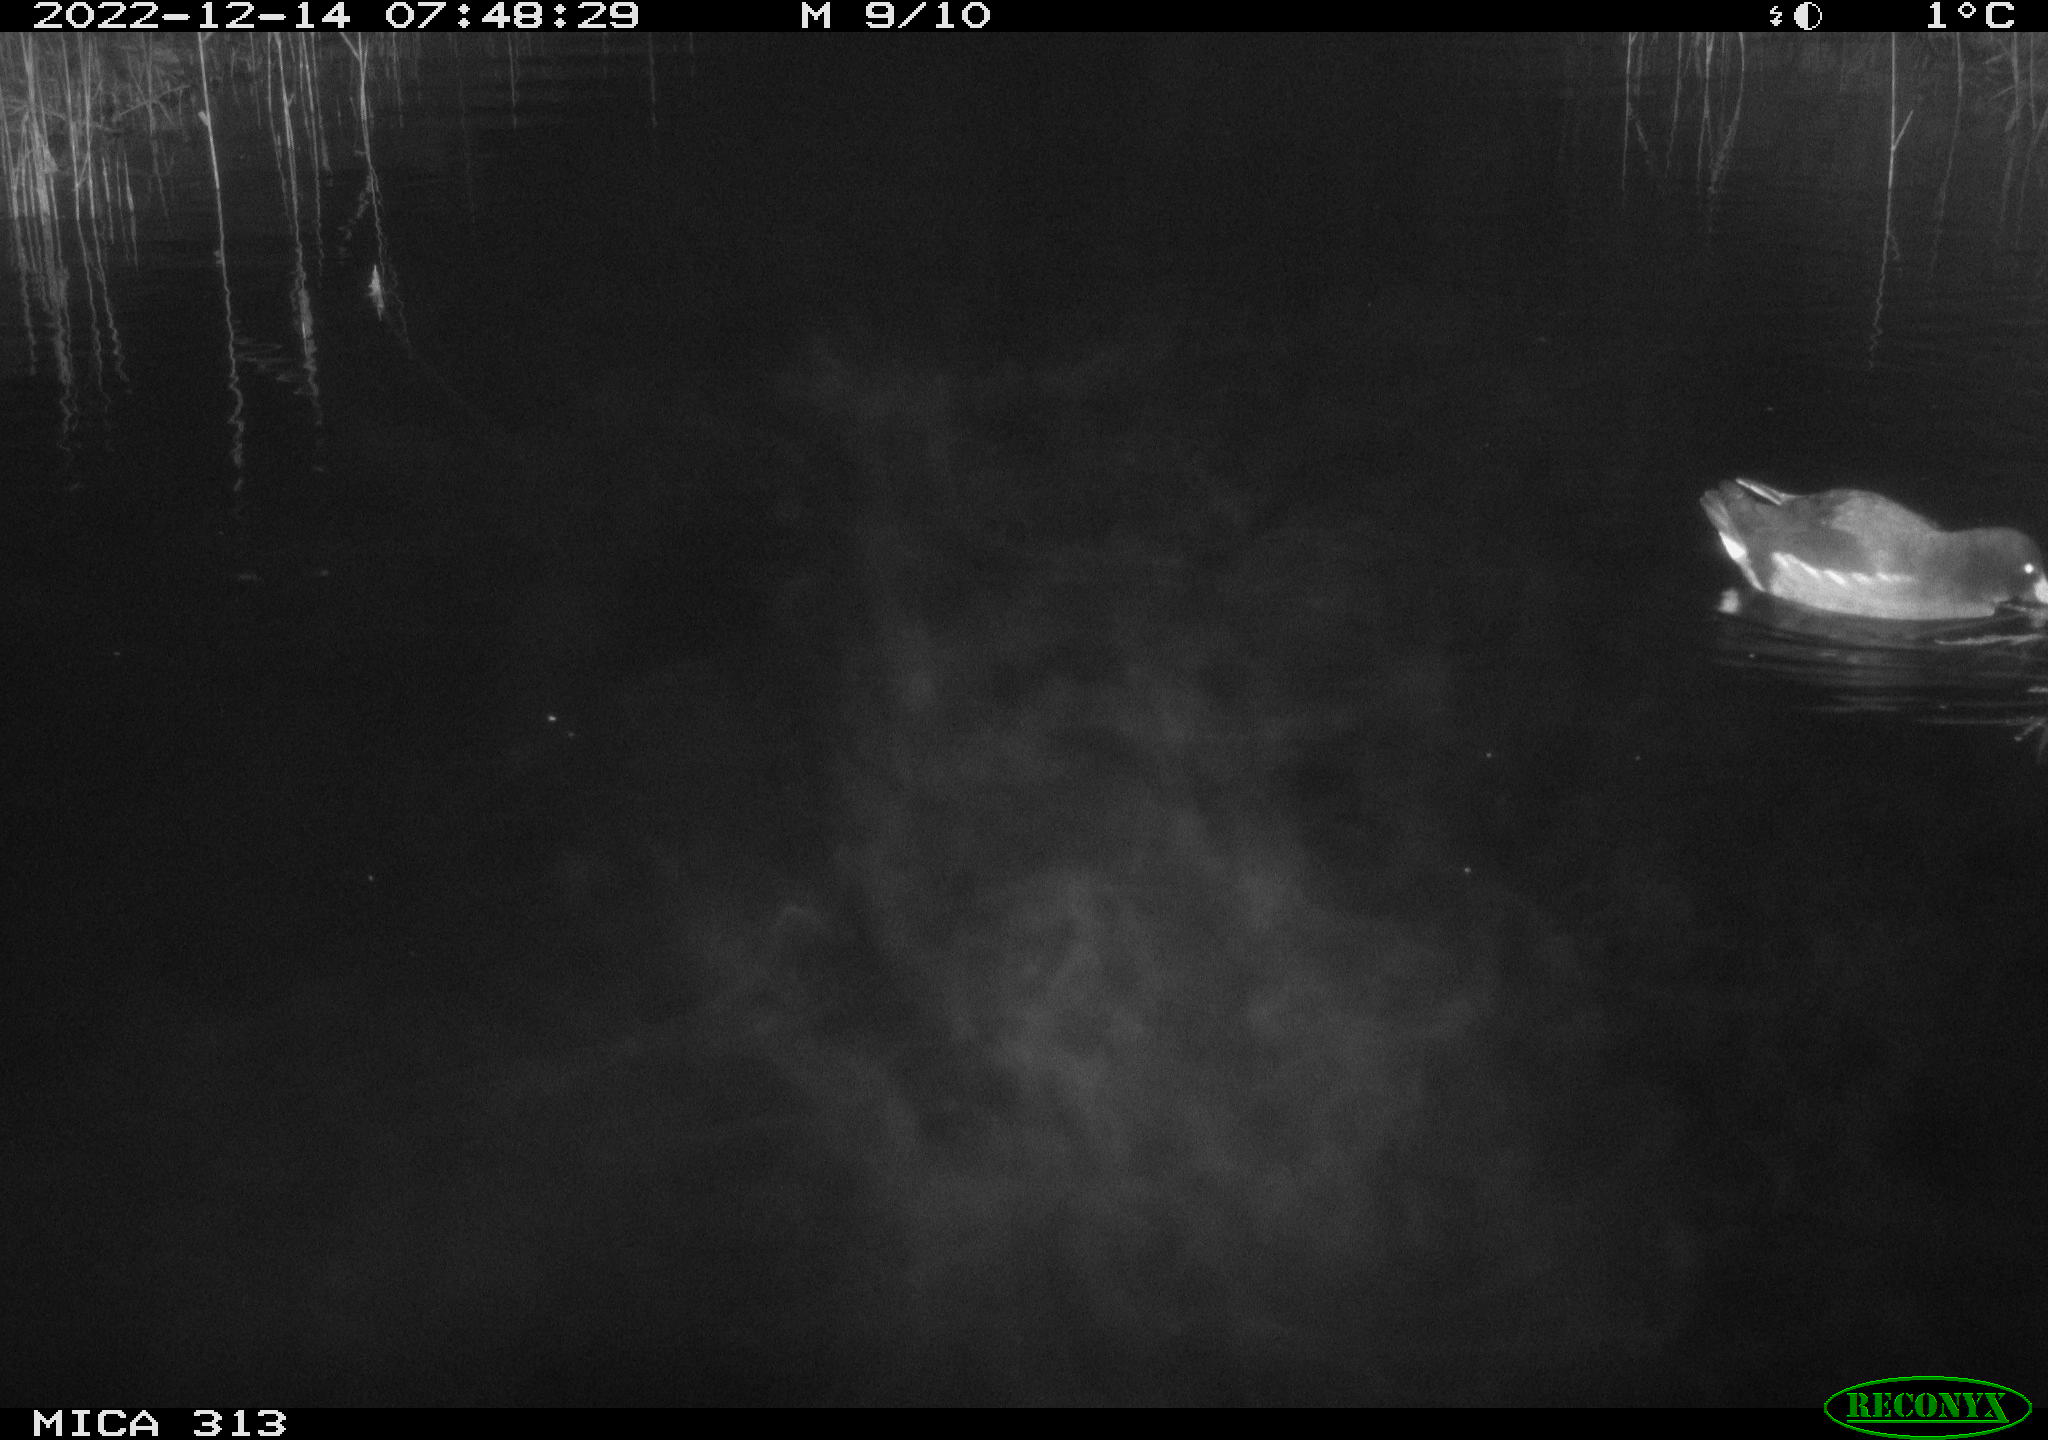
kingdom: Animalia
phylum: Chordata
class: Aves
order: Gruiformes
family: Rallidae
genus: Fulica
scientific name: Fulica atra
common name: Eurasian coot
